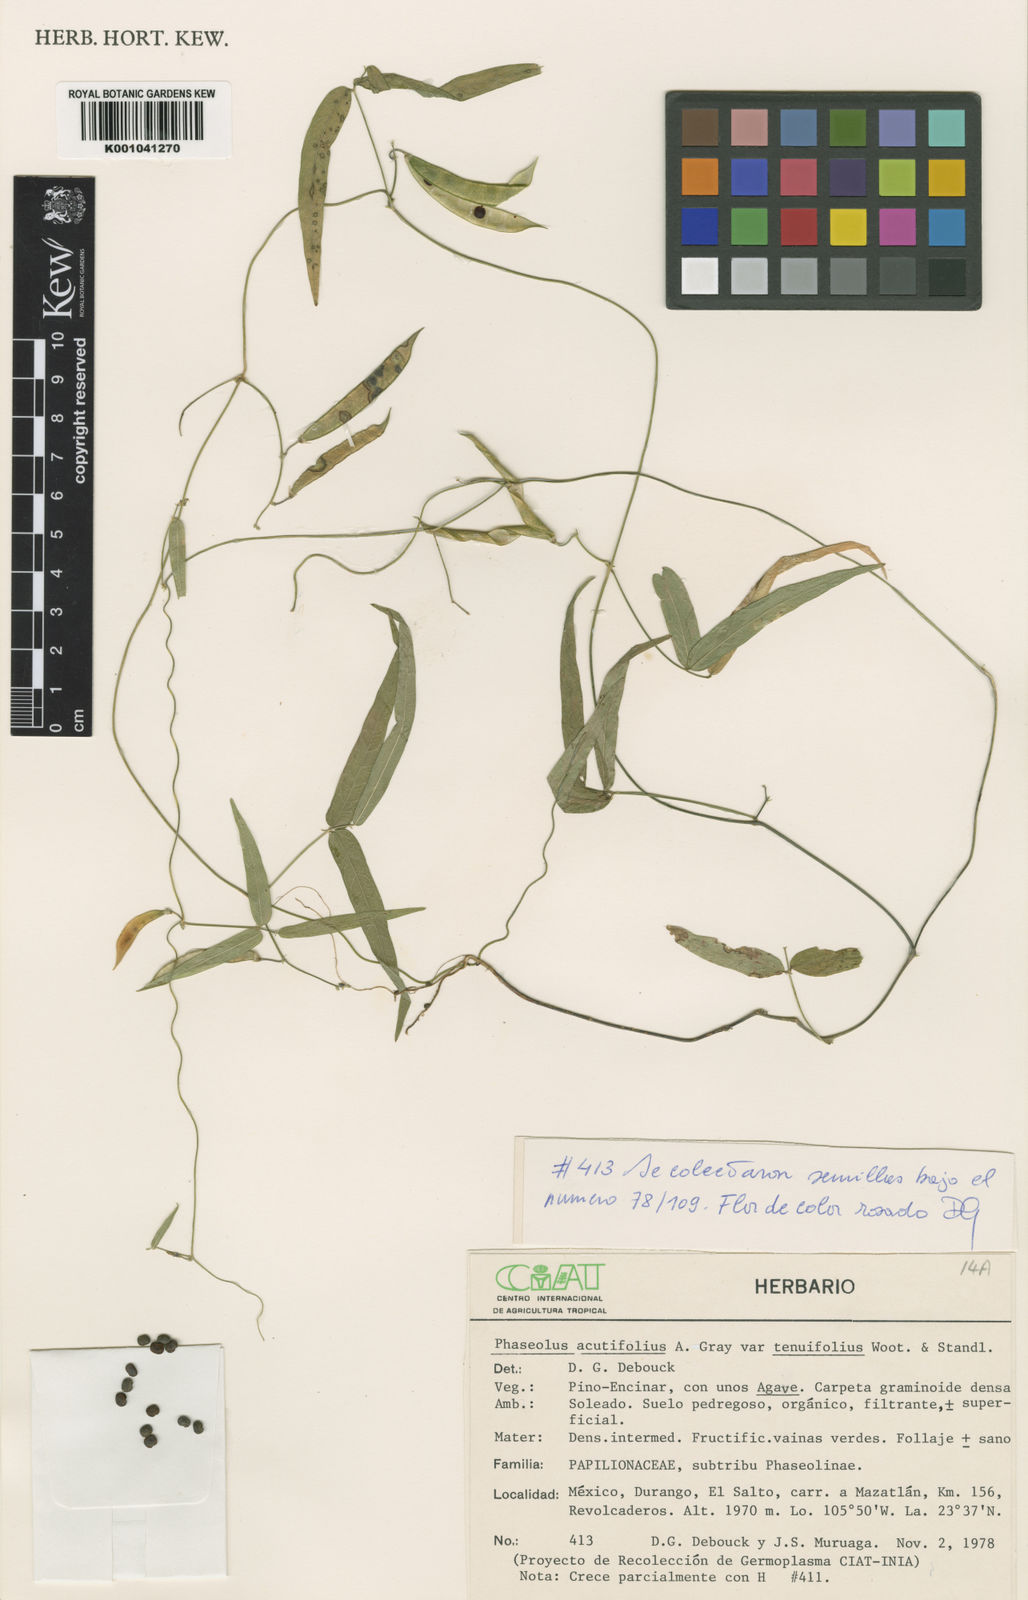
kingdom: Plantae
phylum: Tracheophyta
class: Magnoliopsida
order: Fabales
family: Fabaceae
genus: Phaseolus
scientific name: Phaseolus acutifolius
